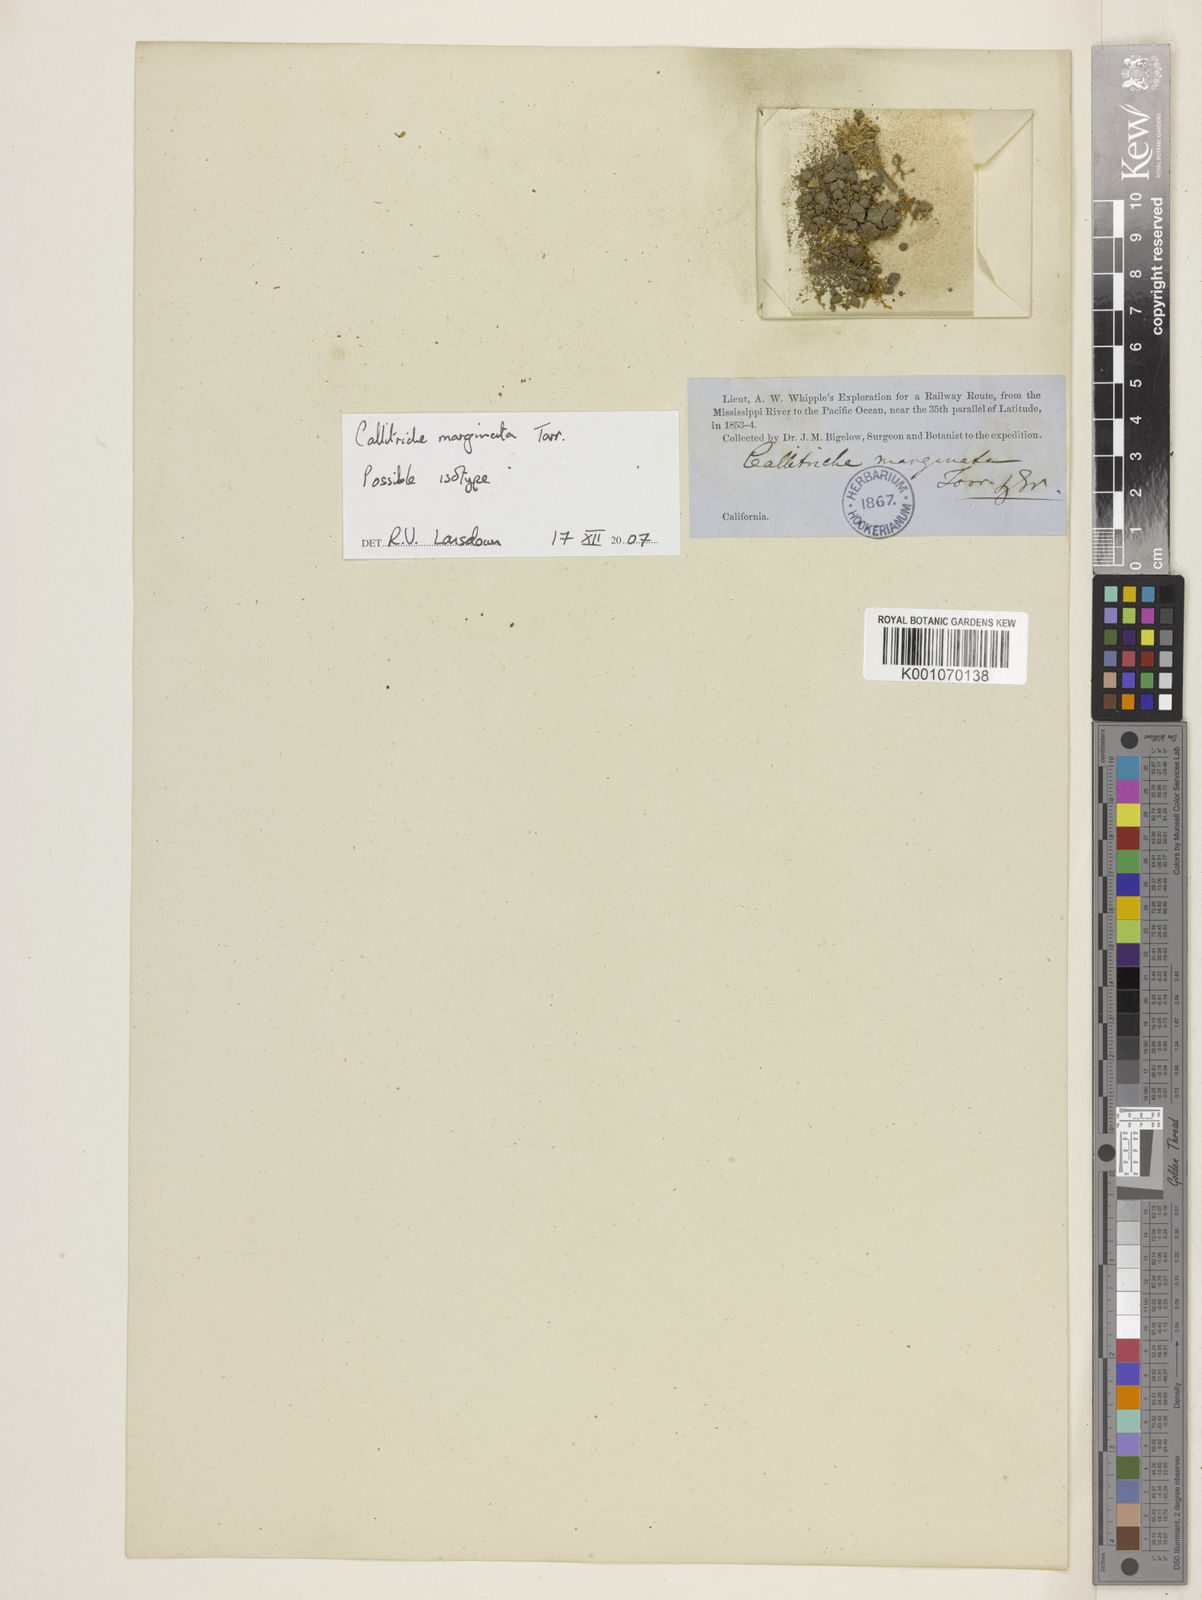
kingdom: Plantae
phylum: Tracheophyta
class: Magnoliopsida
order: Lamiales
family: Plantaginaceae
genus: Callitriche
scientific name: Callitriche marginata
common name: Winged water-starwort
